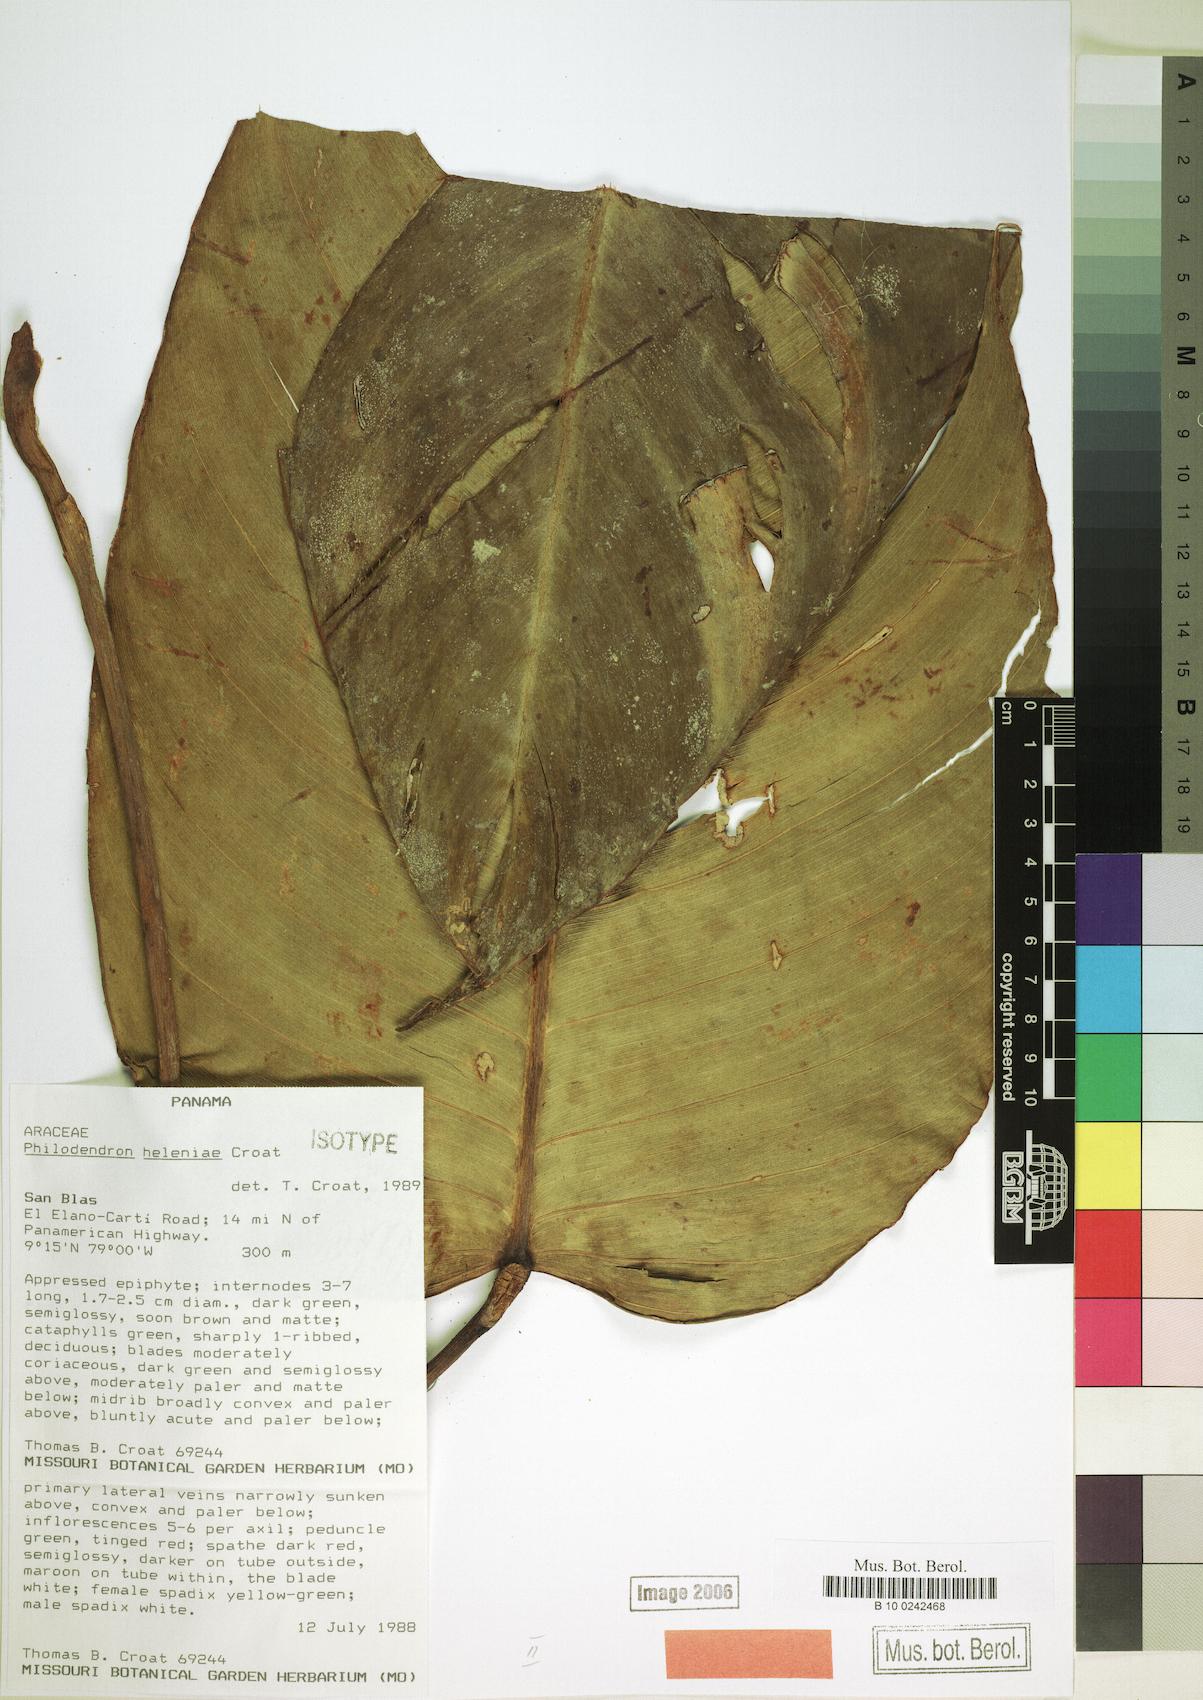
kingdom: Plantae
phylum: Tracheophyta
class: Liliopsida
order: Alismatales
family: Araceae
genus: Philodendron
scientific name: Philodendron heleniae
